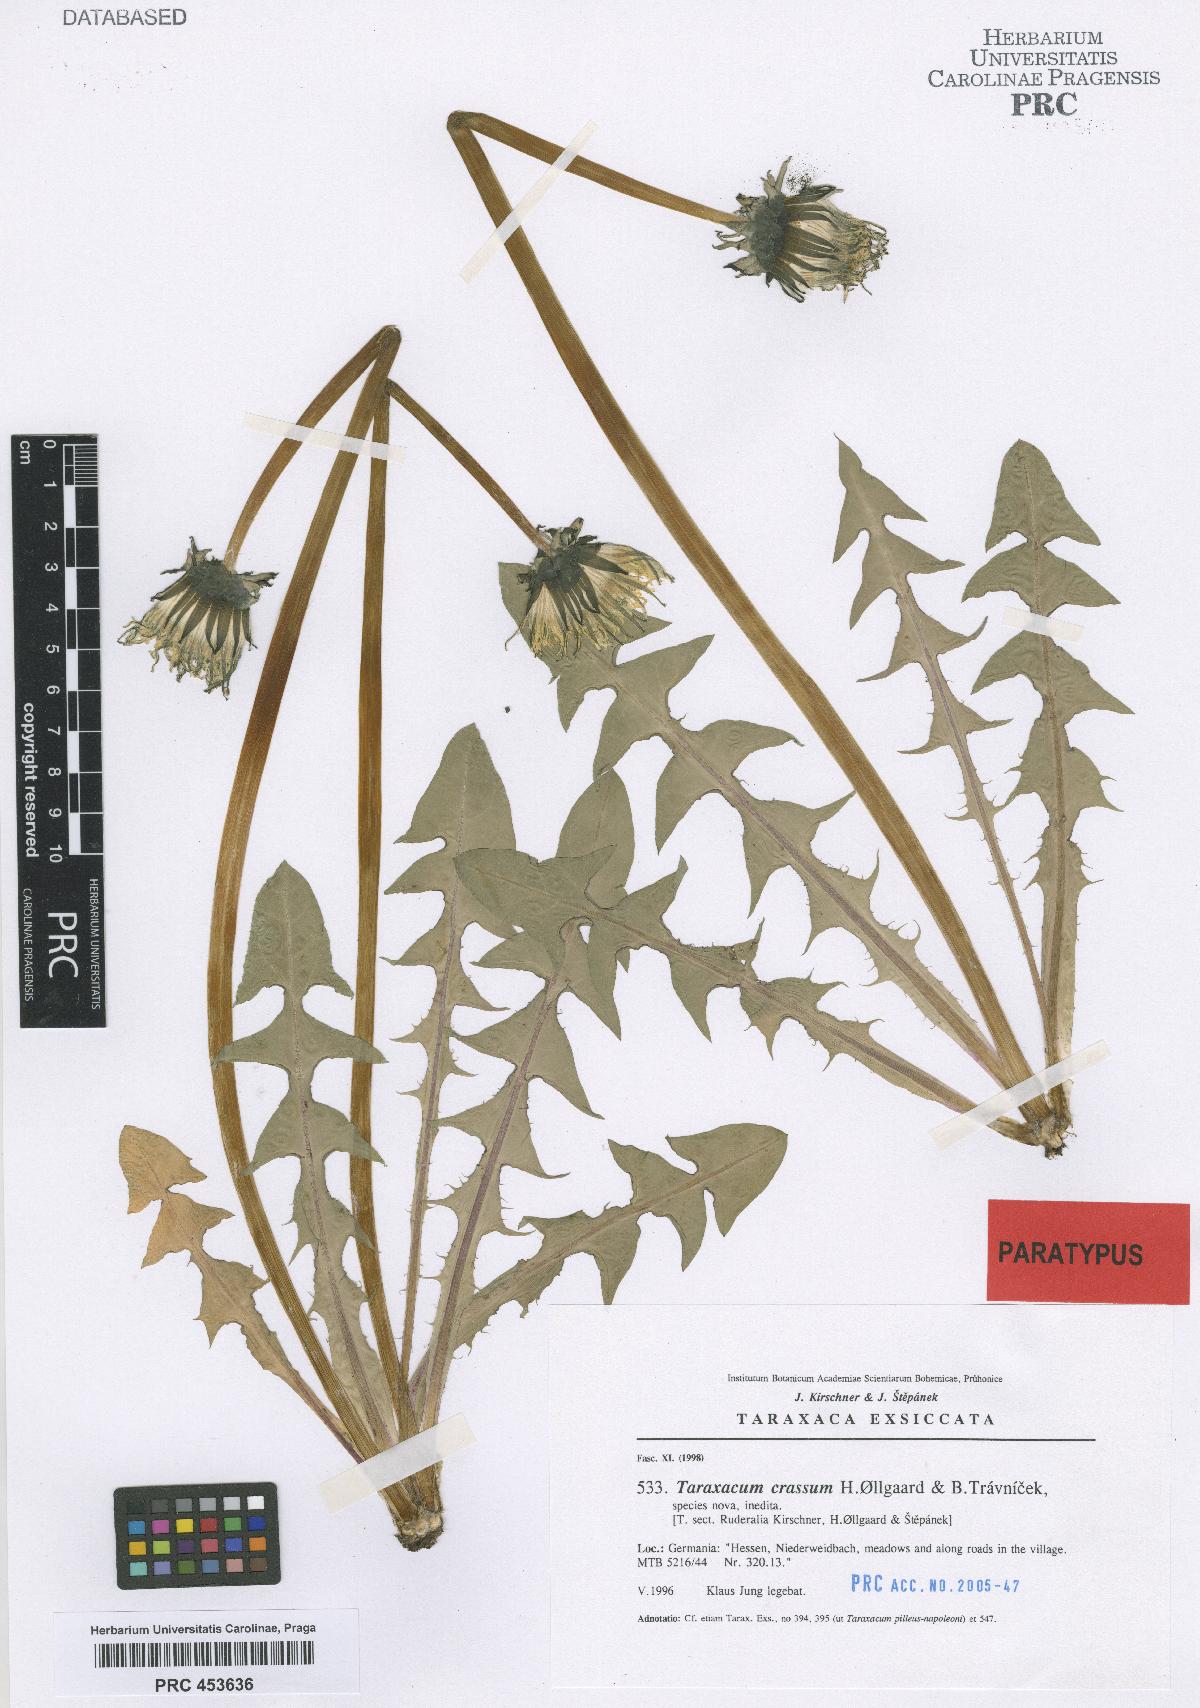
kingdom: Plantae
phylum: Tracheophyta
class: Magnoliopsida
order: Asterales
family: Asteraceae
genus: Taraxacum
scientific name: Taraxacum crassum
